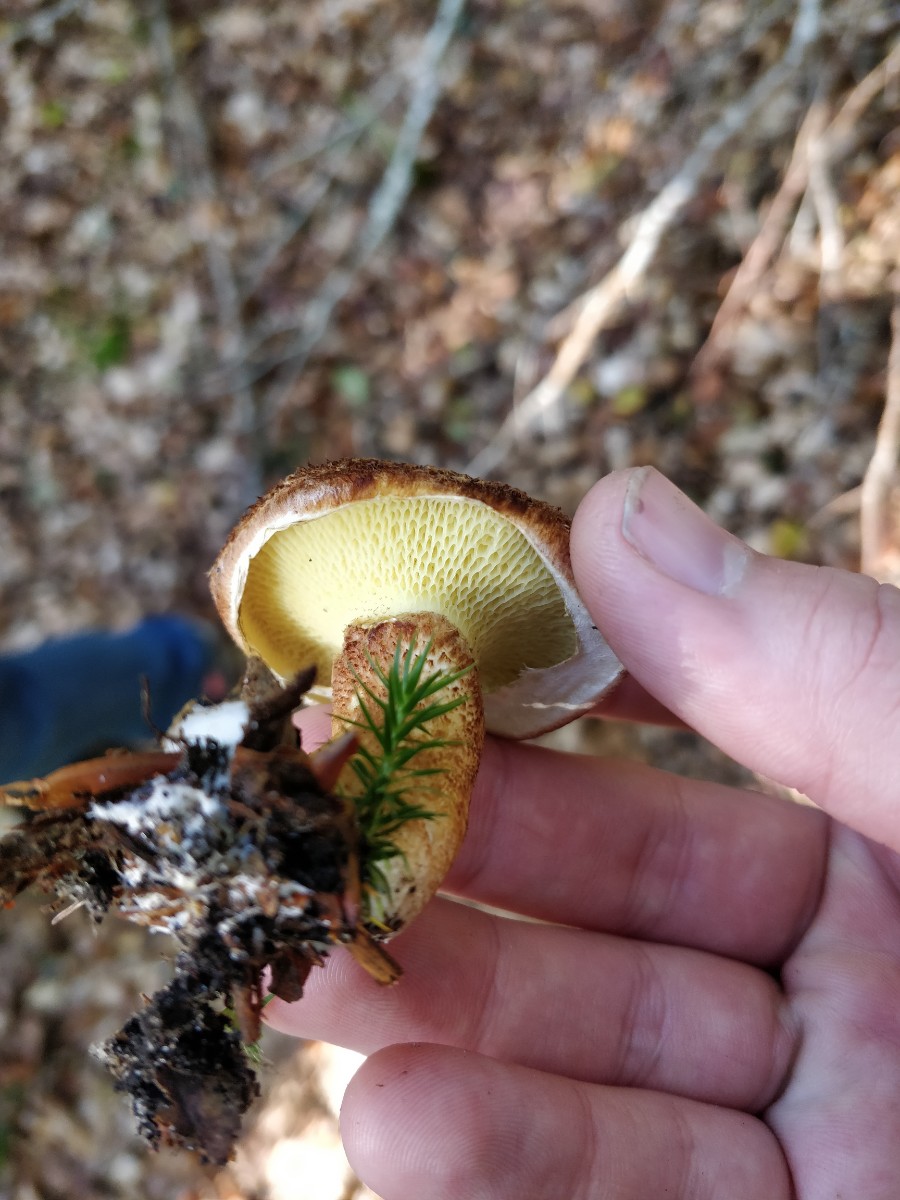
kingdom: Fungi
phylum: Basidiomycota
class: Agaricomycetes
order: Boletales
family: Suillaceae
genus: Suillus
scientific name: Suillus cavipes
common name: hulstokket slimrørhat
